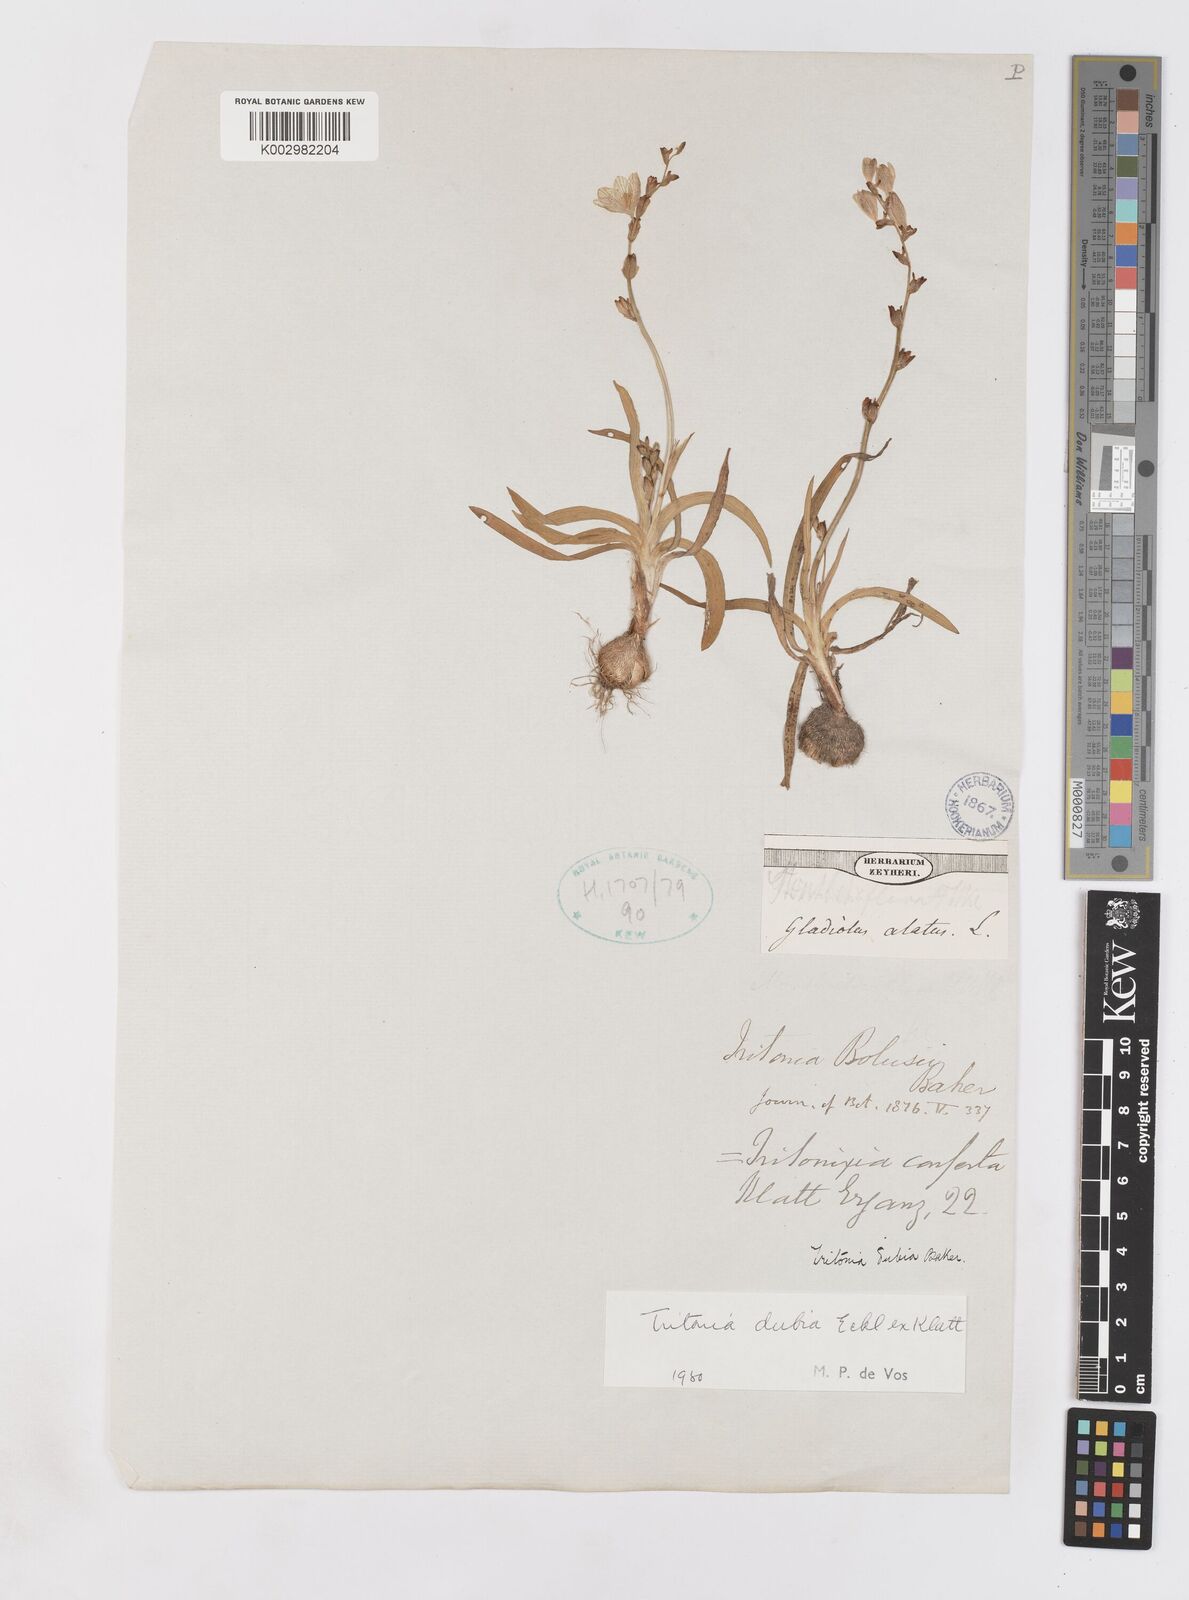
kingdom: Plantae
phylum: Tracheophyta
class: Liliopsida
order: Asparagales
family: Iridaceae
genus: Tritonia
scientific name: Tritonia dubia
